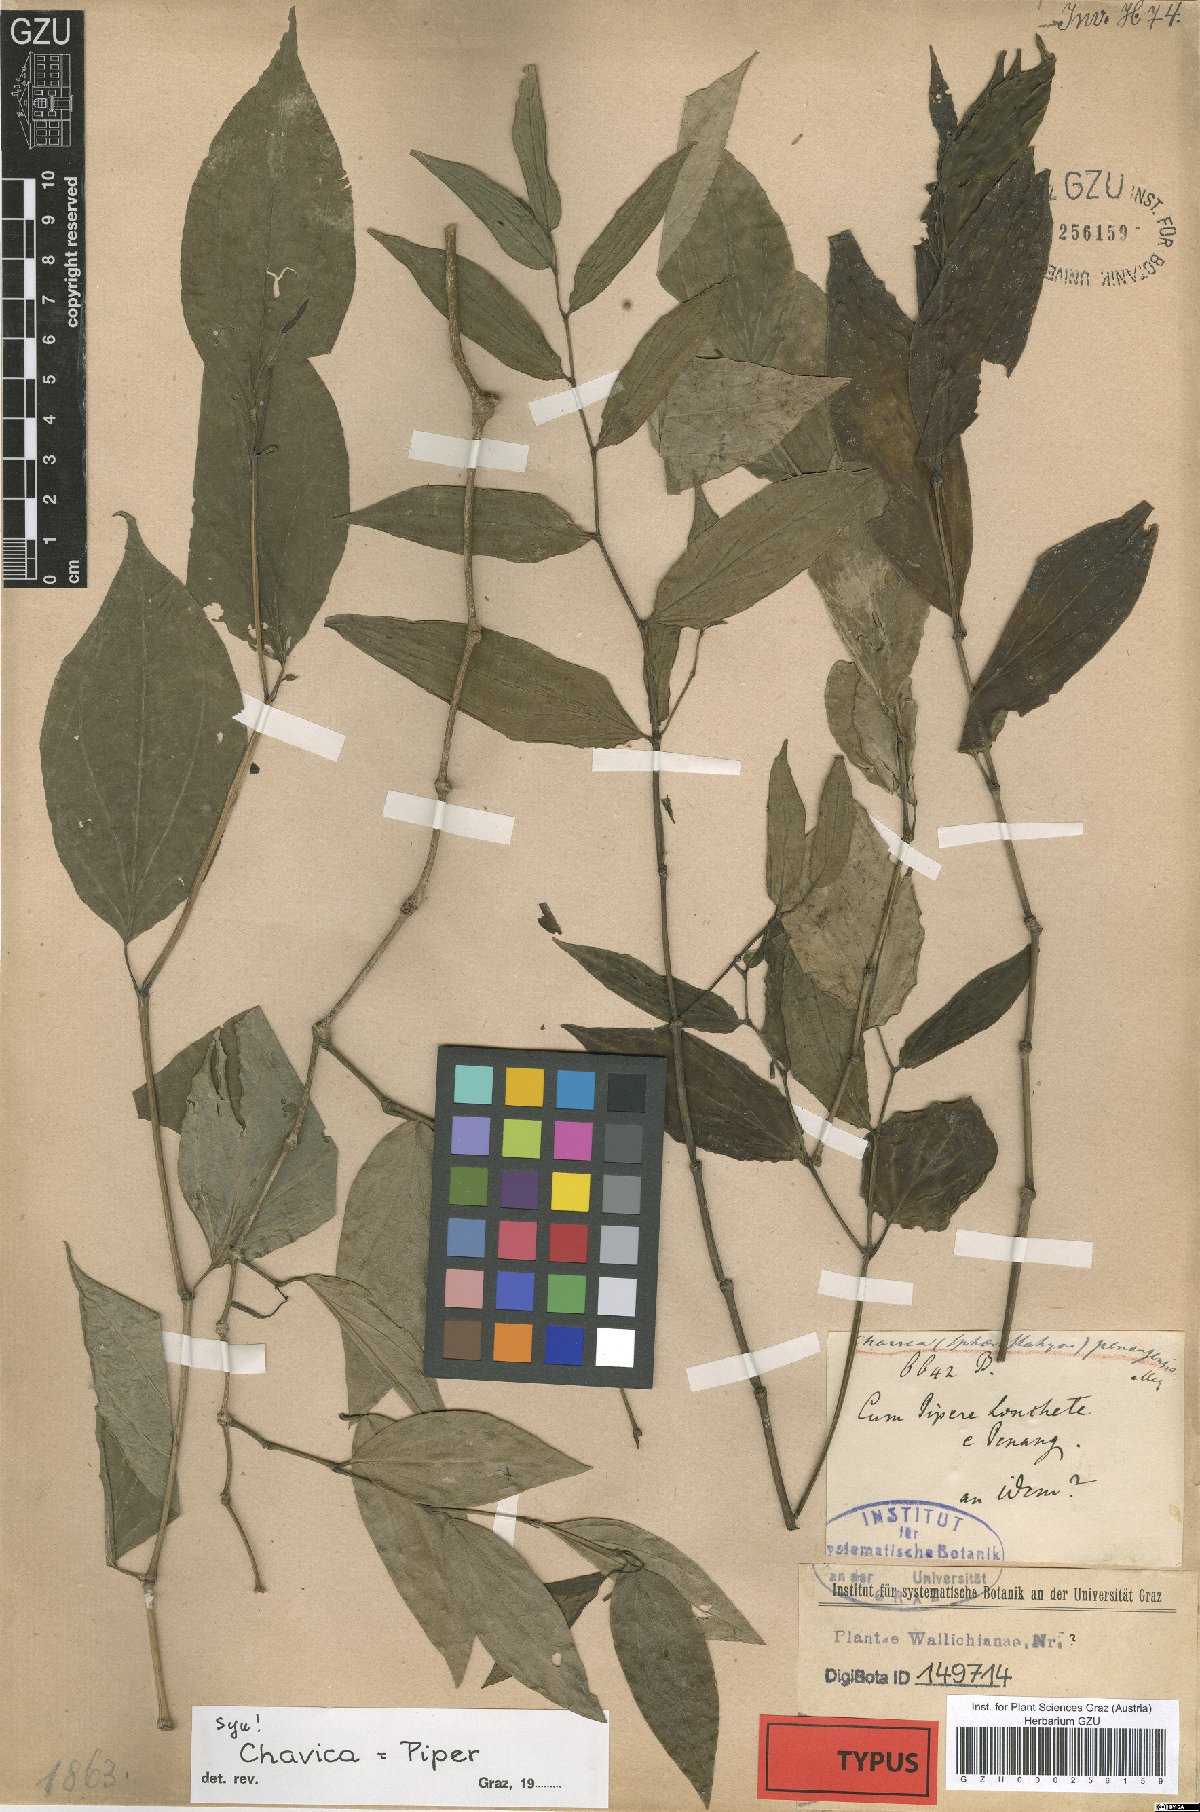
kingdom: Plantae
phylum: Tracheophyta
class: Magnoliopsida
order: Piperales
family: Piperaceae
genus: Piper
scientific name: Piper penangense
